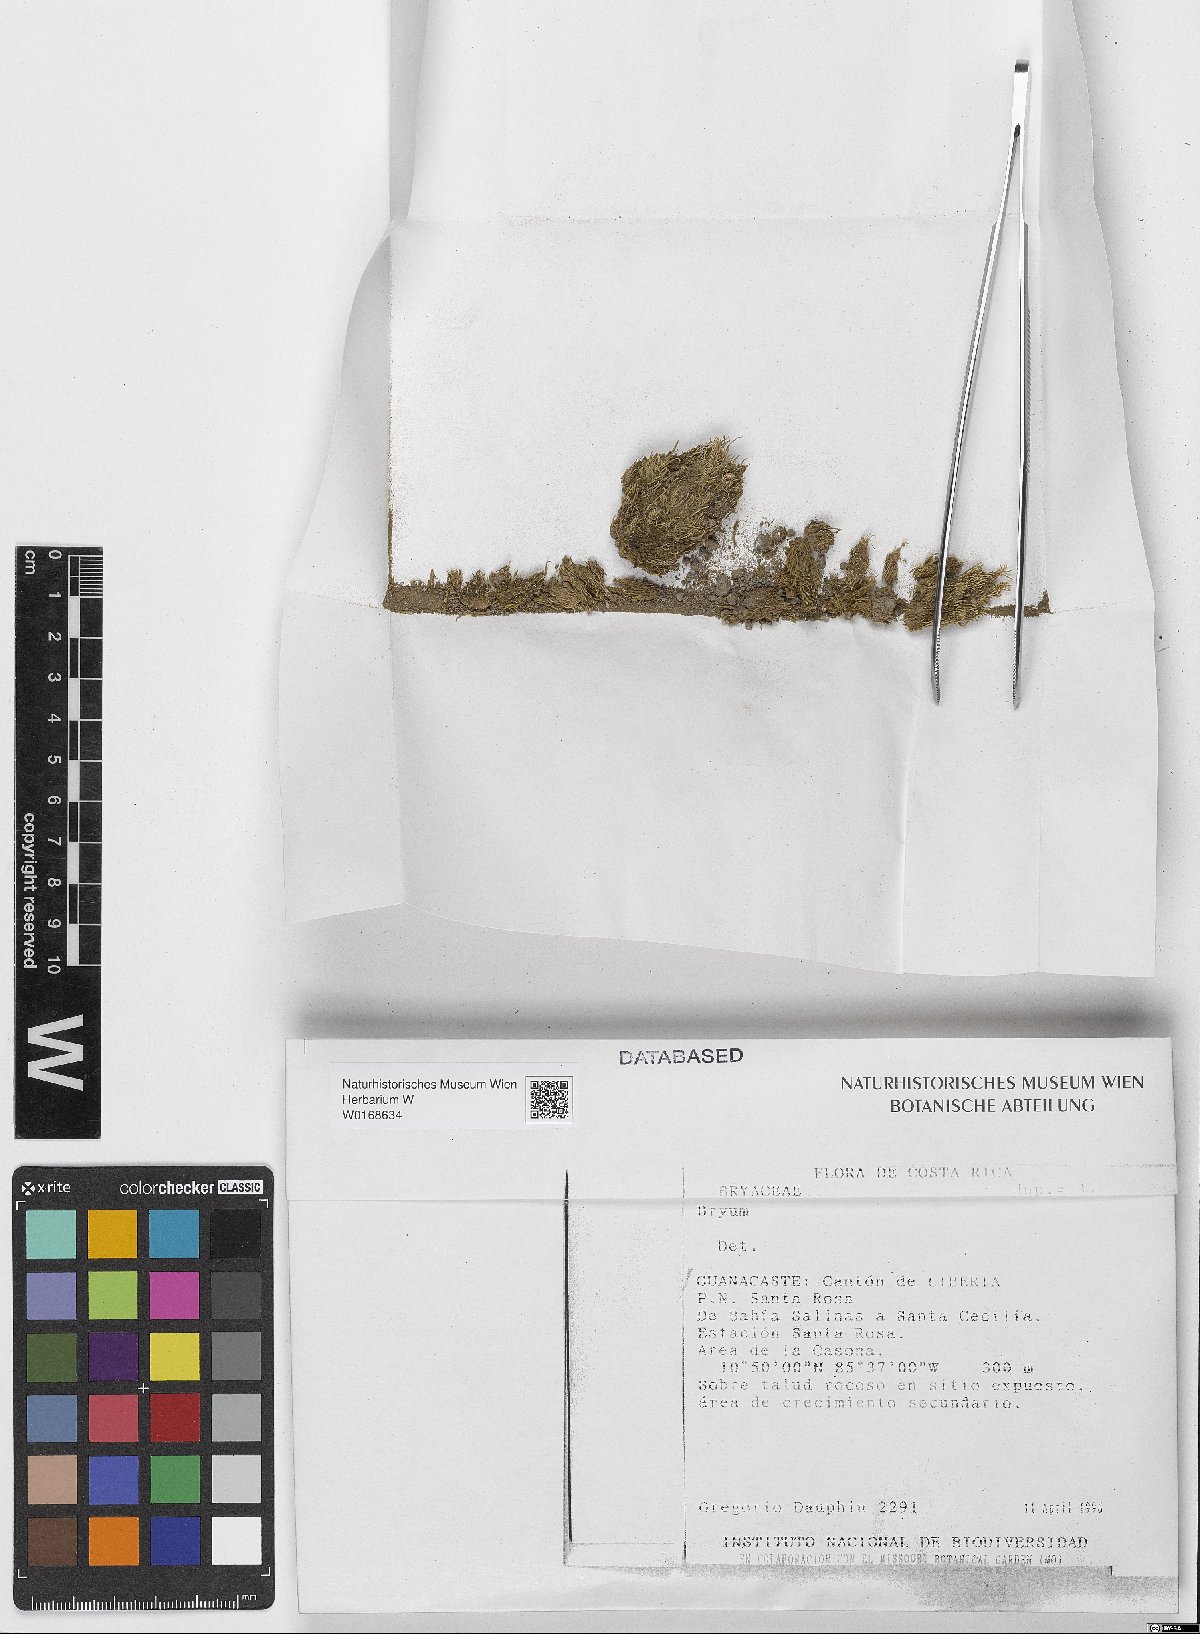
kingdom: Plantae
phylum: Bryophyta
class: Bryopsida
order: Bryales
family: Bryaceae
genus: Bryum
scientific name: Bryum
